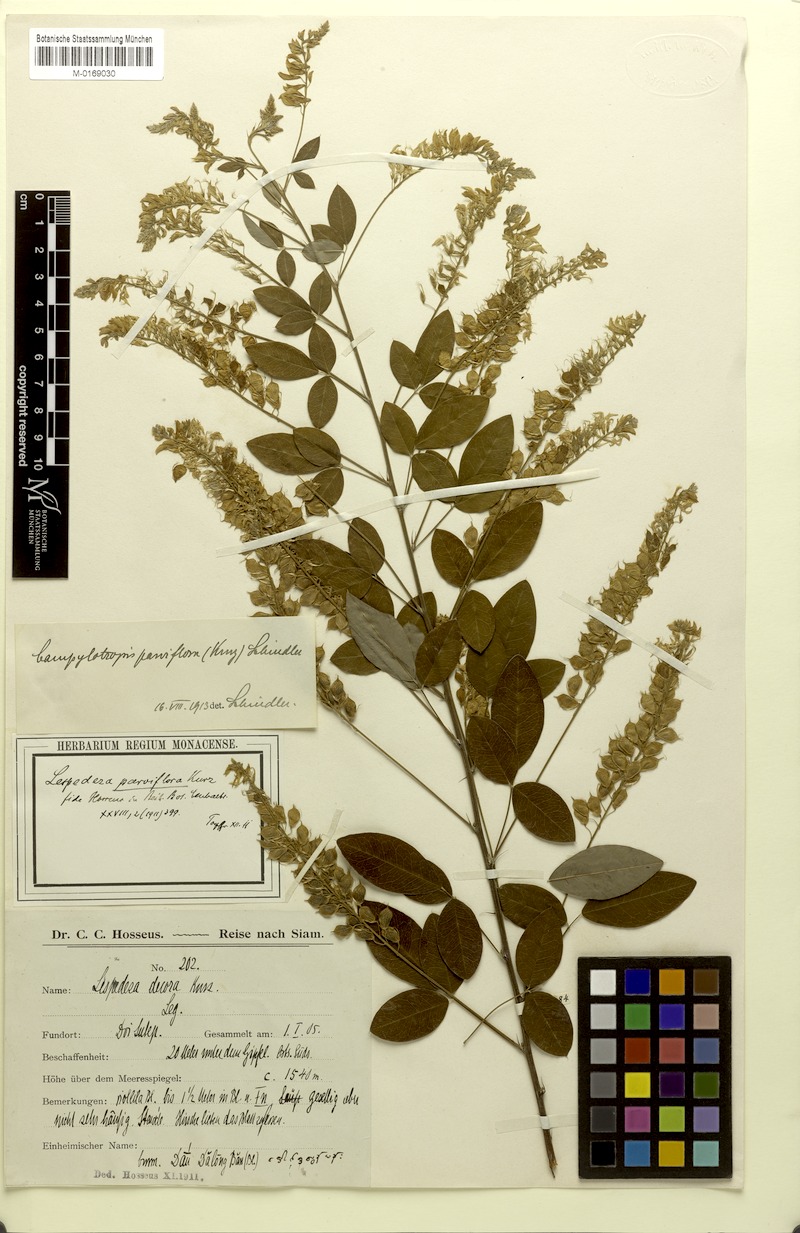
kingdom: Plantae
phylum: Tracheophyta
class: Magnoliopsida
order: Fabales
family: Fabaceae
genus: Campylotropis
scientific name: Campylotropis parviflora
